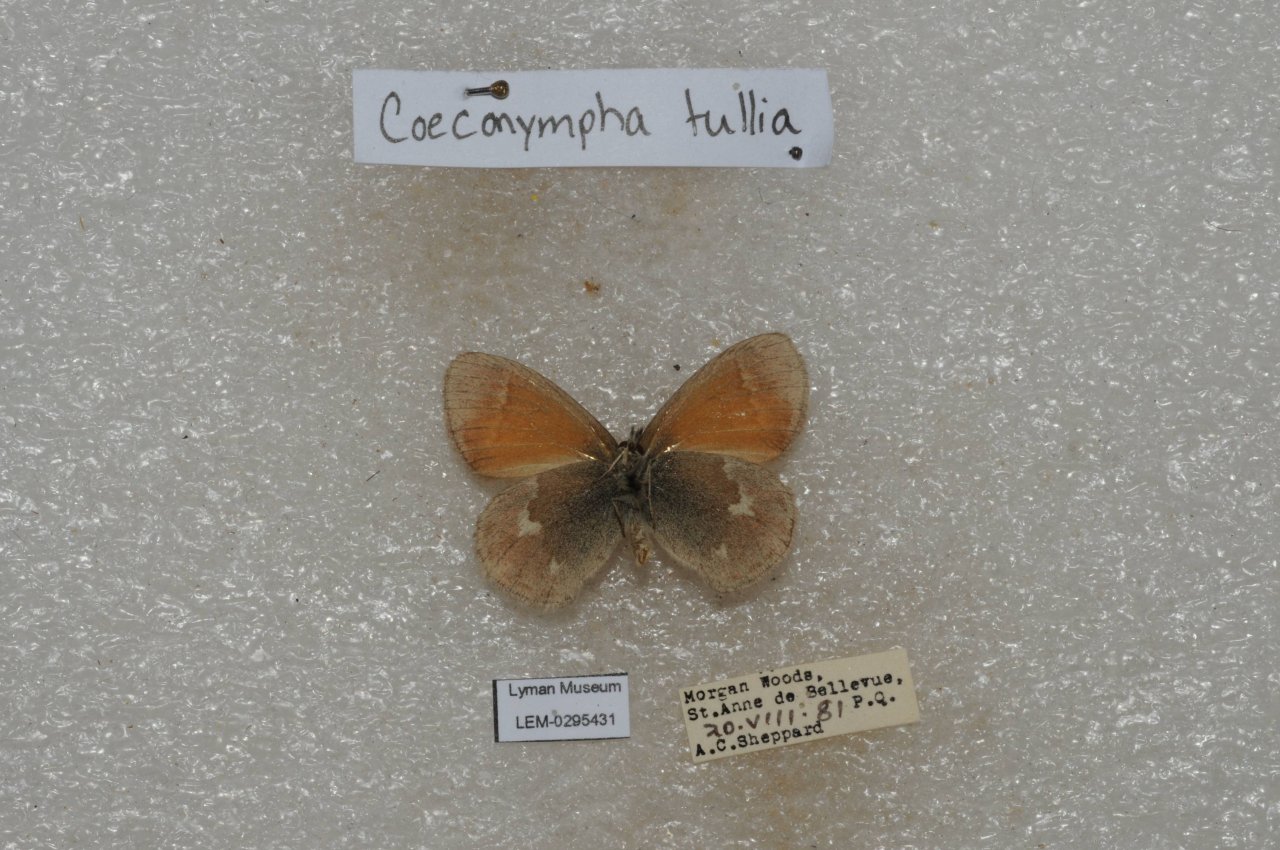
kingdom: Animalia
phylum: Arthropoda
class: Insecta
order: Lepidoptera
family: Nymphalidae
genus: Coenonympha
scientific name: Coenonympha tullia
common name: Large Heath
